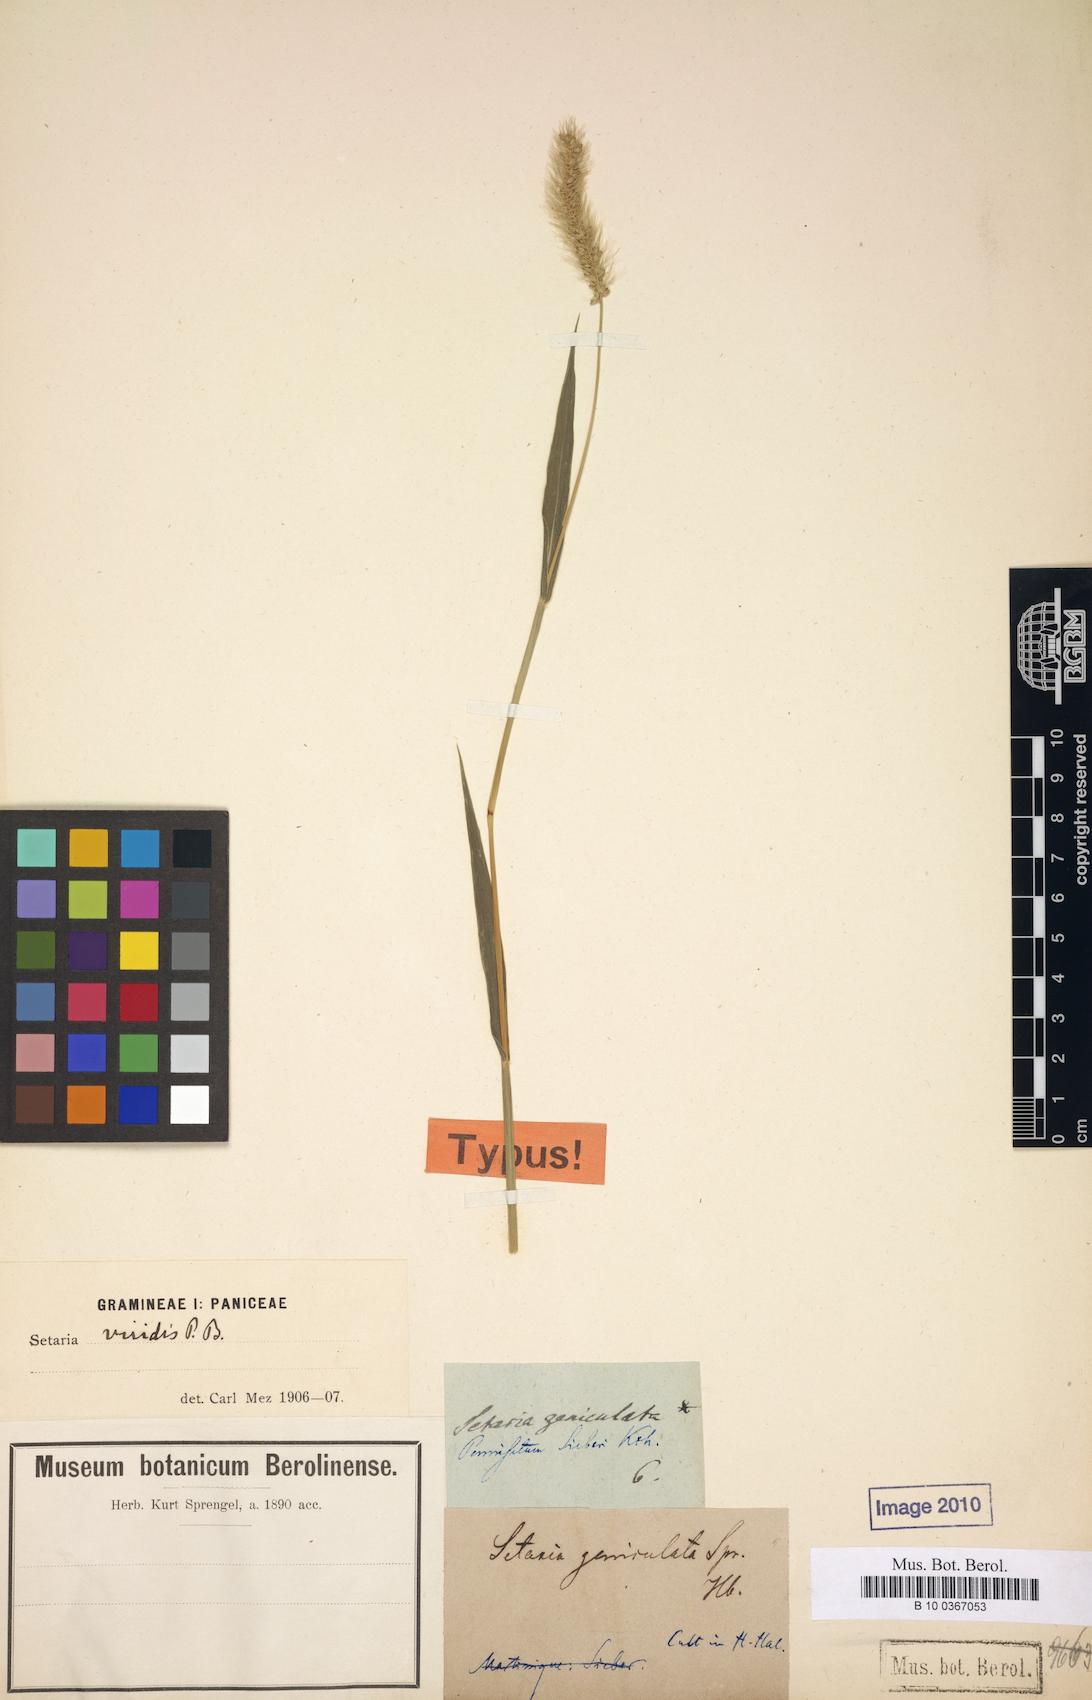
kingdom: Plantae
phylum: Tracheophyta
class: Liliopsida
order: Poales
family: Poaceae
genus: Cenchrus
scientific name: Cenchrus setosus
